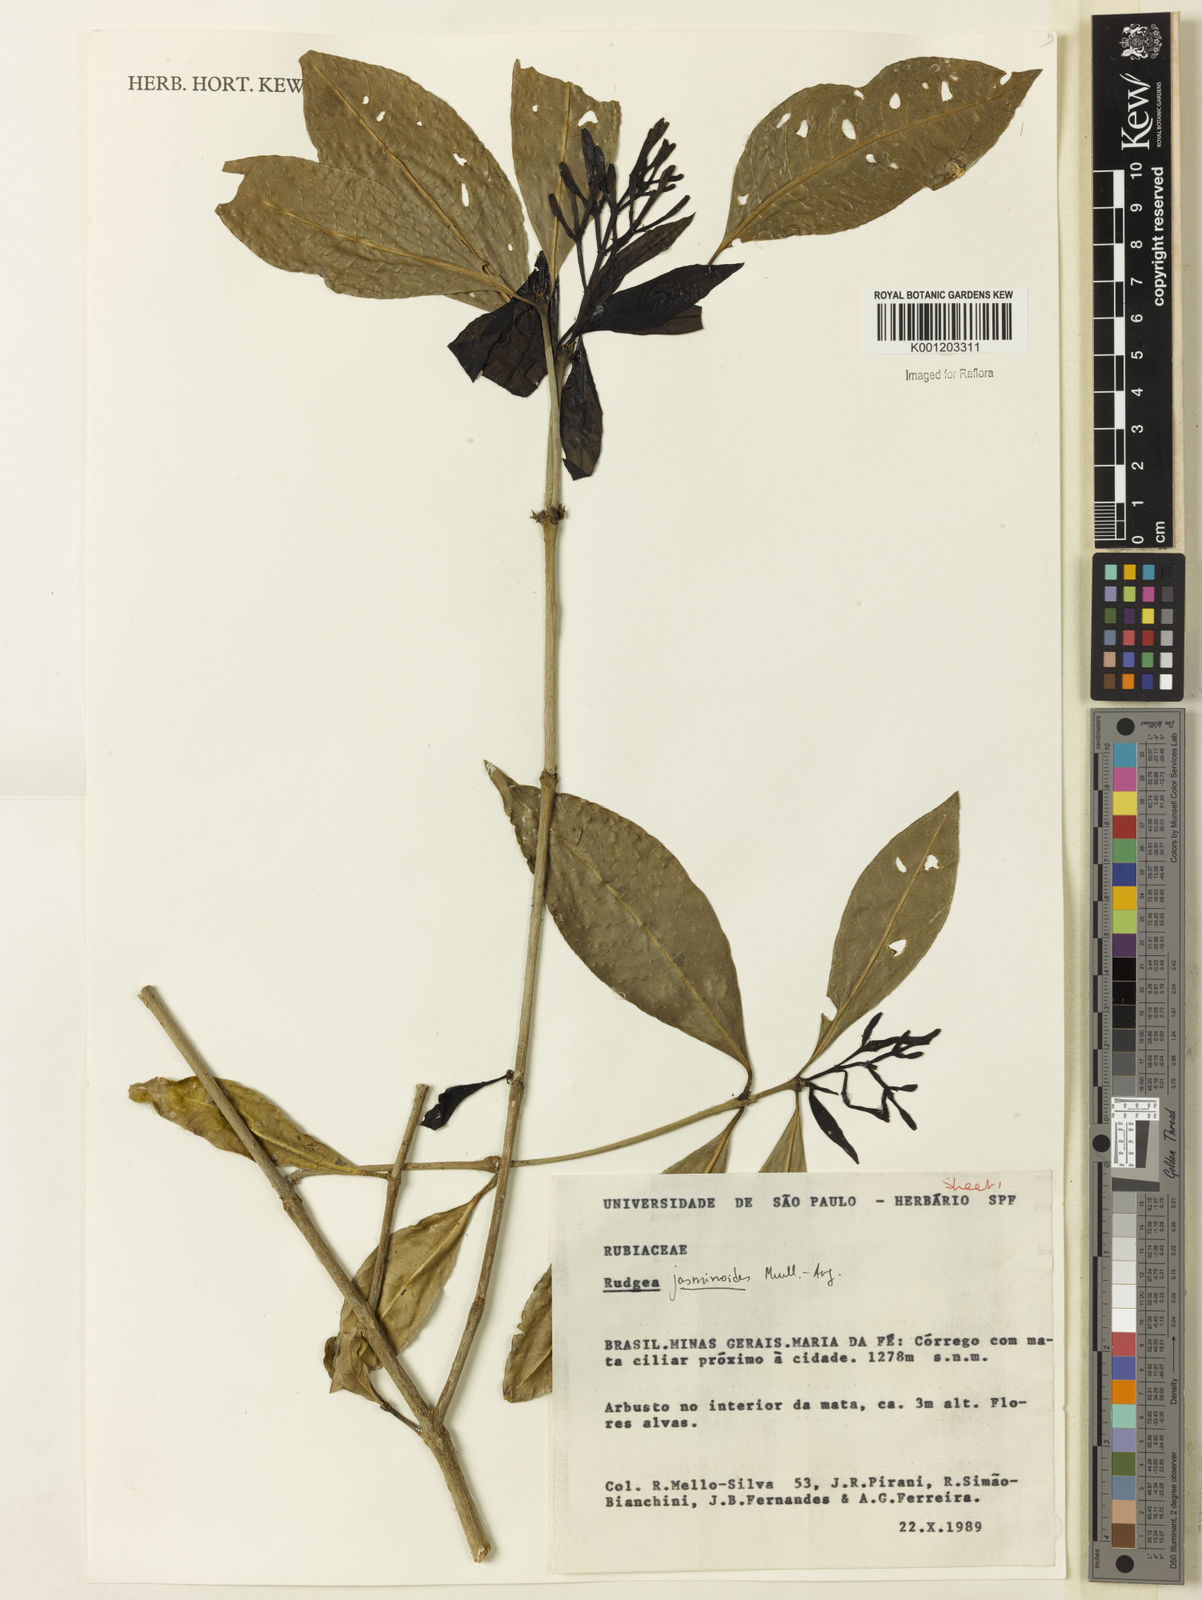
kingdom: Plantae
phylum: Tracheophyta
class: Magnoliopsida
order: Gentianales
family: Rubiaceae
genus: Rudgea
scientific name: Rudgea
